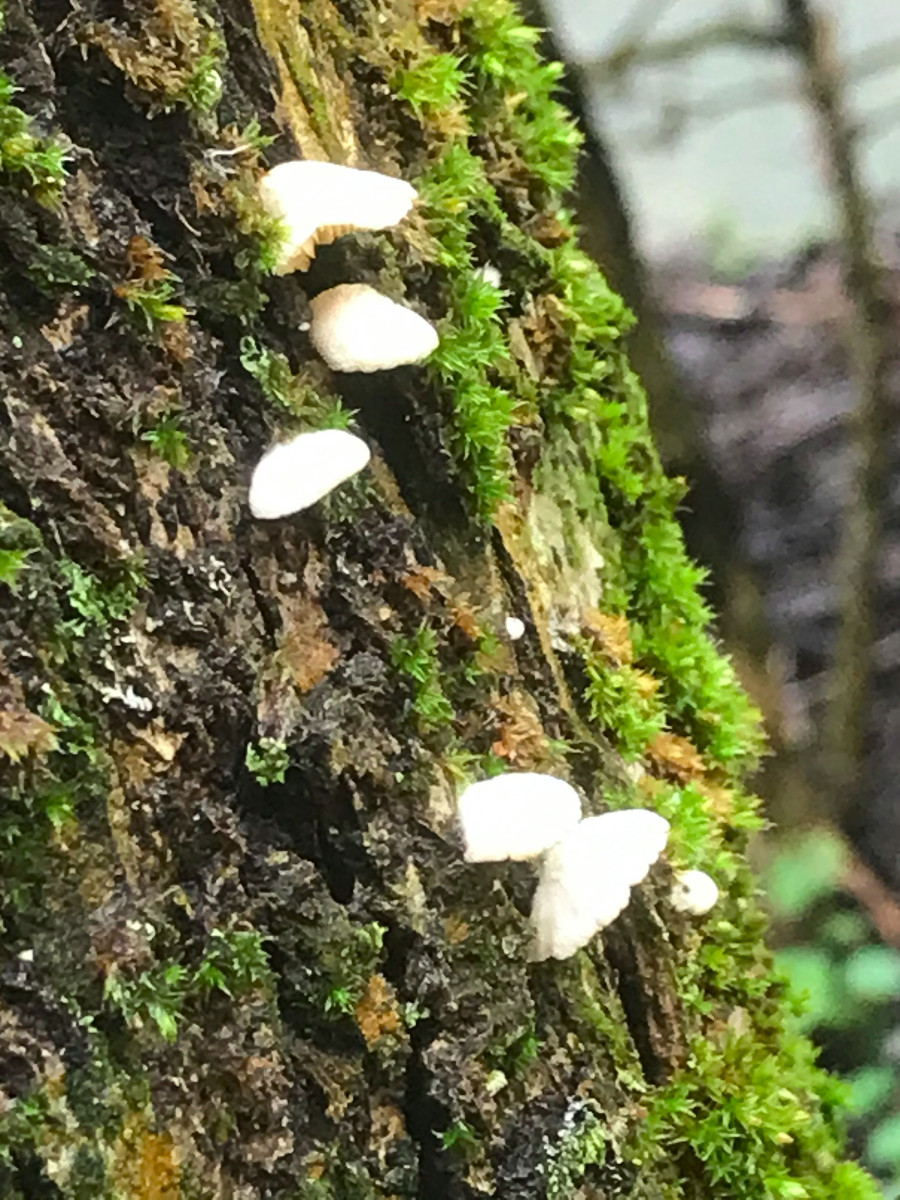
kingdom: Fungi
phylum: Basidiomycota
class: Agaricomycetes
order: Agaricales
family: Crepidotaceae
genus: Crepidotus
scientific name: Crepidotus
